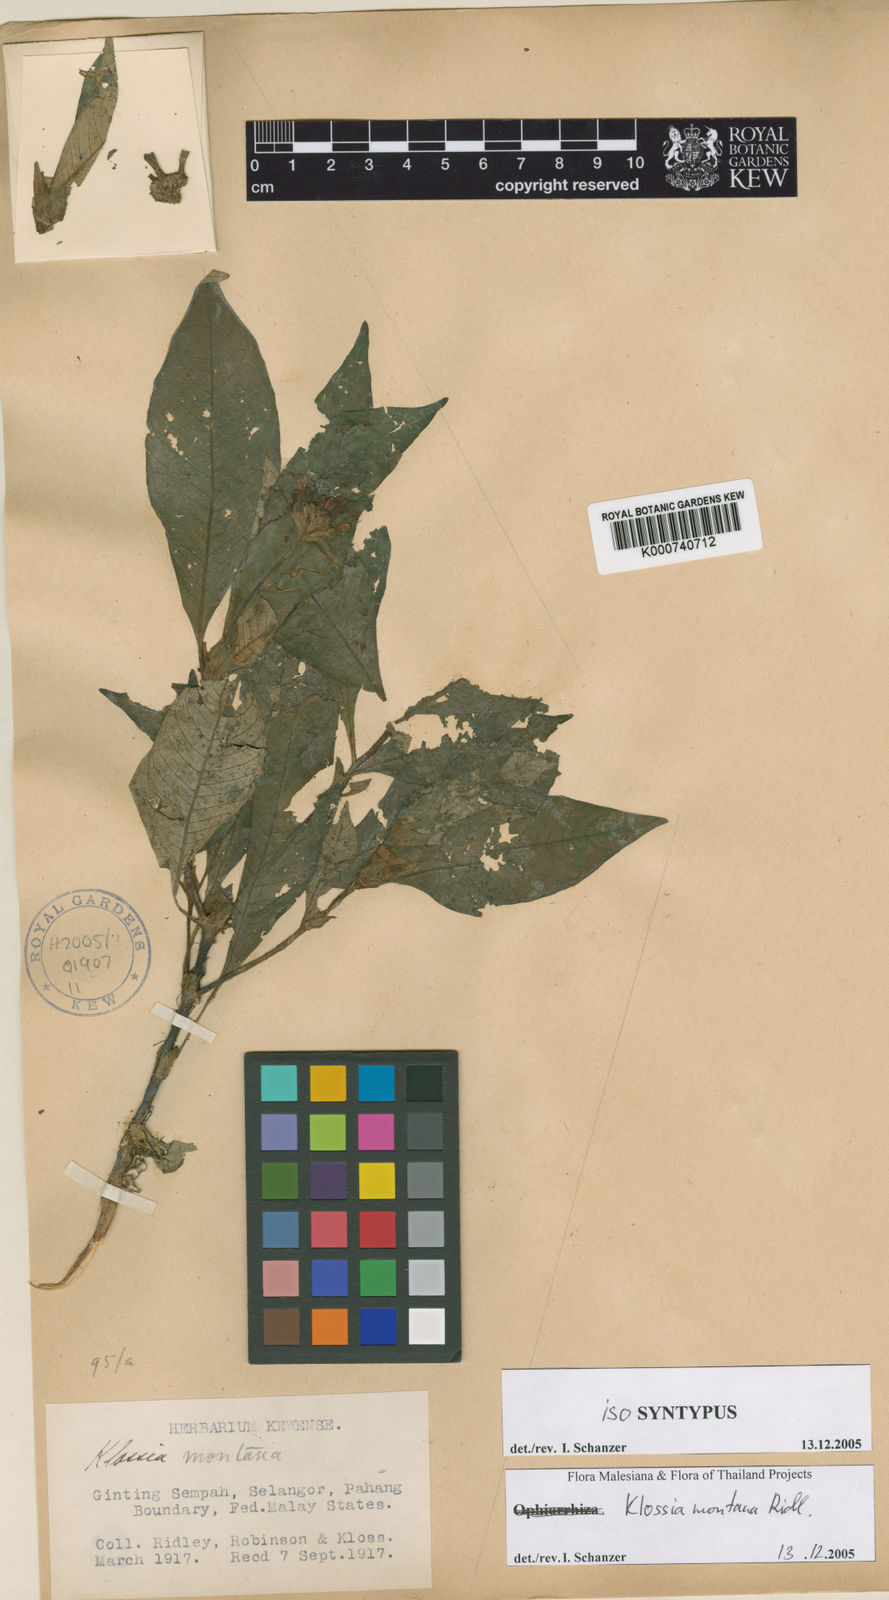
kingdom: Plantae
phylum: Tracheophyta
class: Magnoliopsida
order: Gentianales
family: Rubiaceae
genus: Klossia
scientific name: Klossia montana
